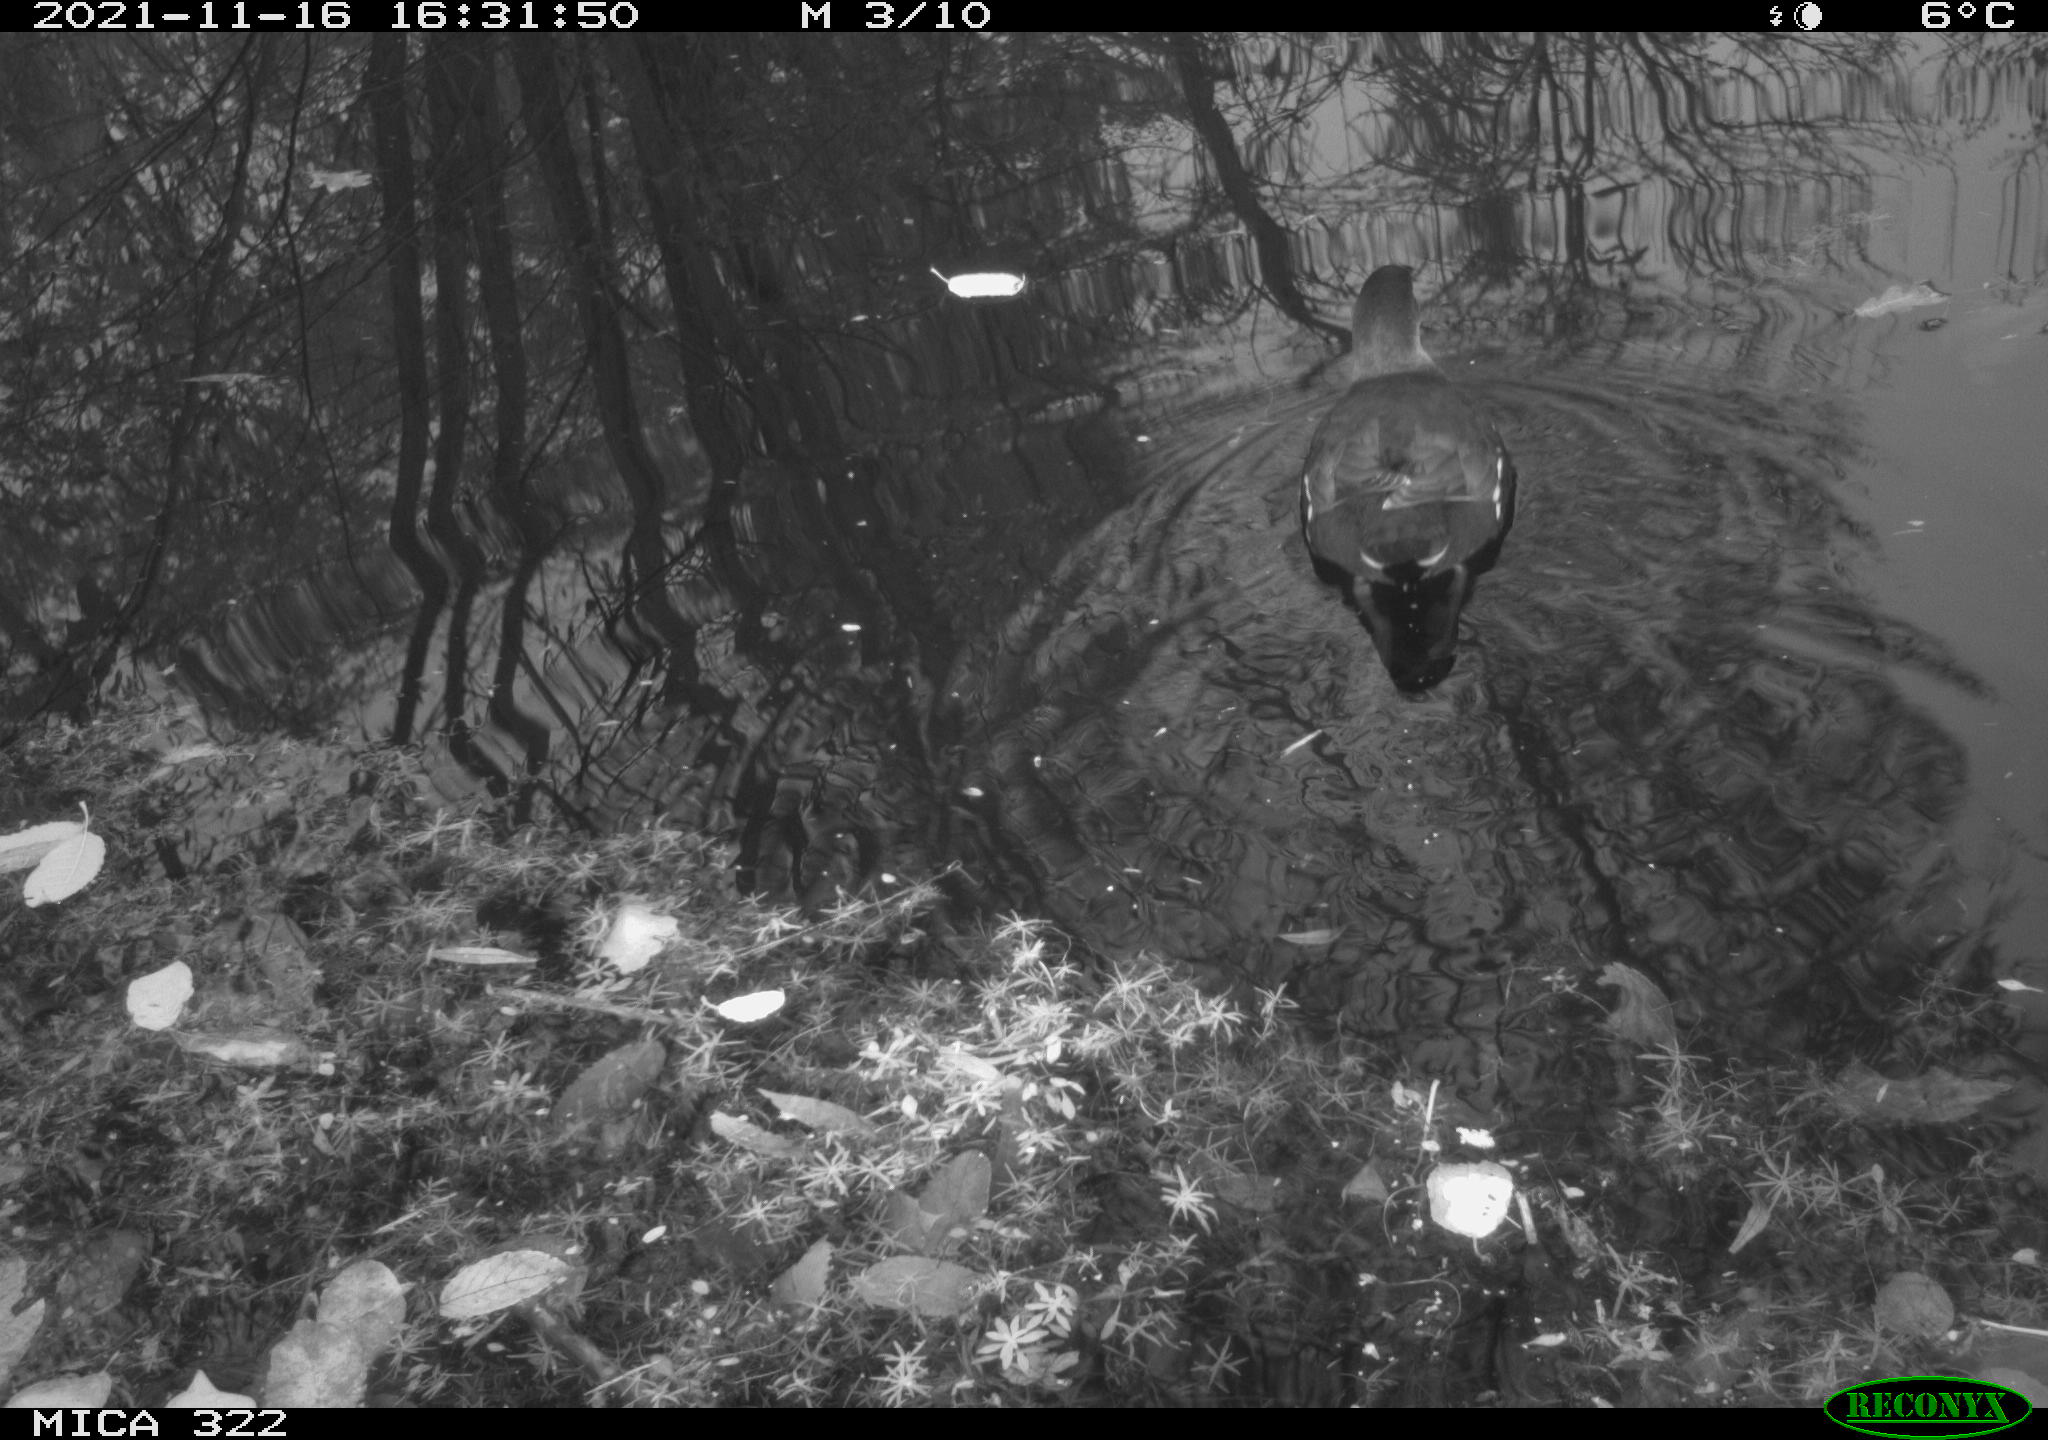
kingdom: Animalia
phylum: Chordata
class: Aves
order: Gruiformes
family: Rallidae
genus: Gallinula
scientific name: Gallinula chloropus
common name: Common moorhen
